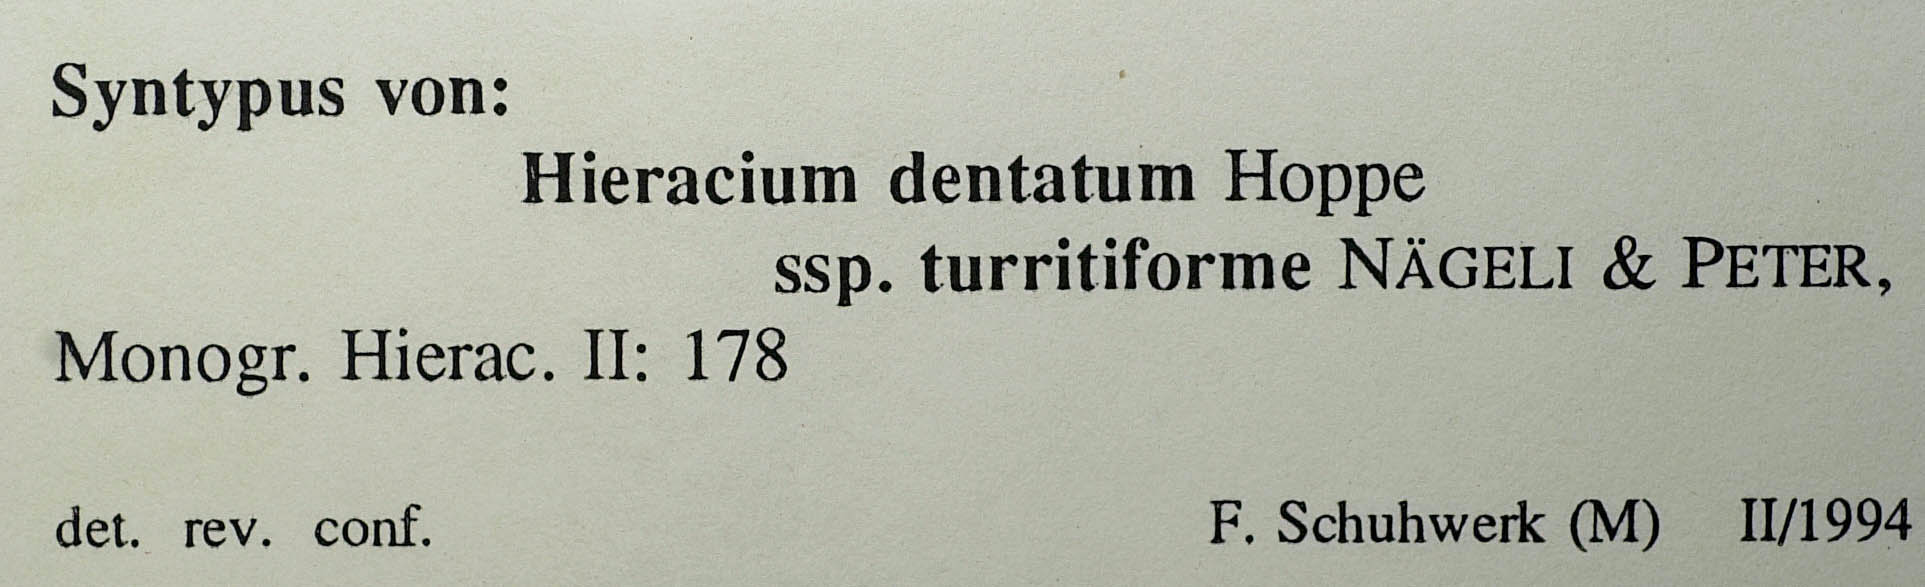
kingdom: Plantae
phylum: Tracheophyta
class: Magnoliopsida
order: Asterales
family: Asteraceae
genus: Hieracium
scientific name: Hieracium dentatum
